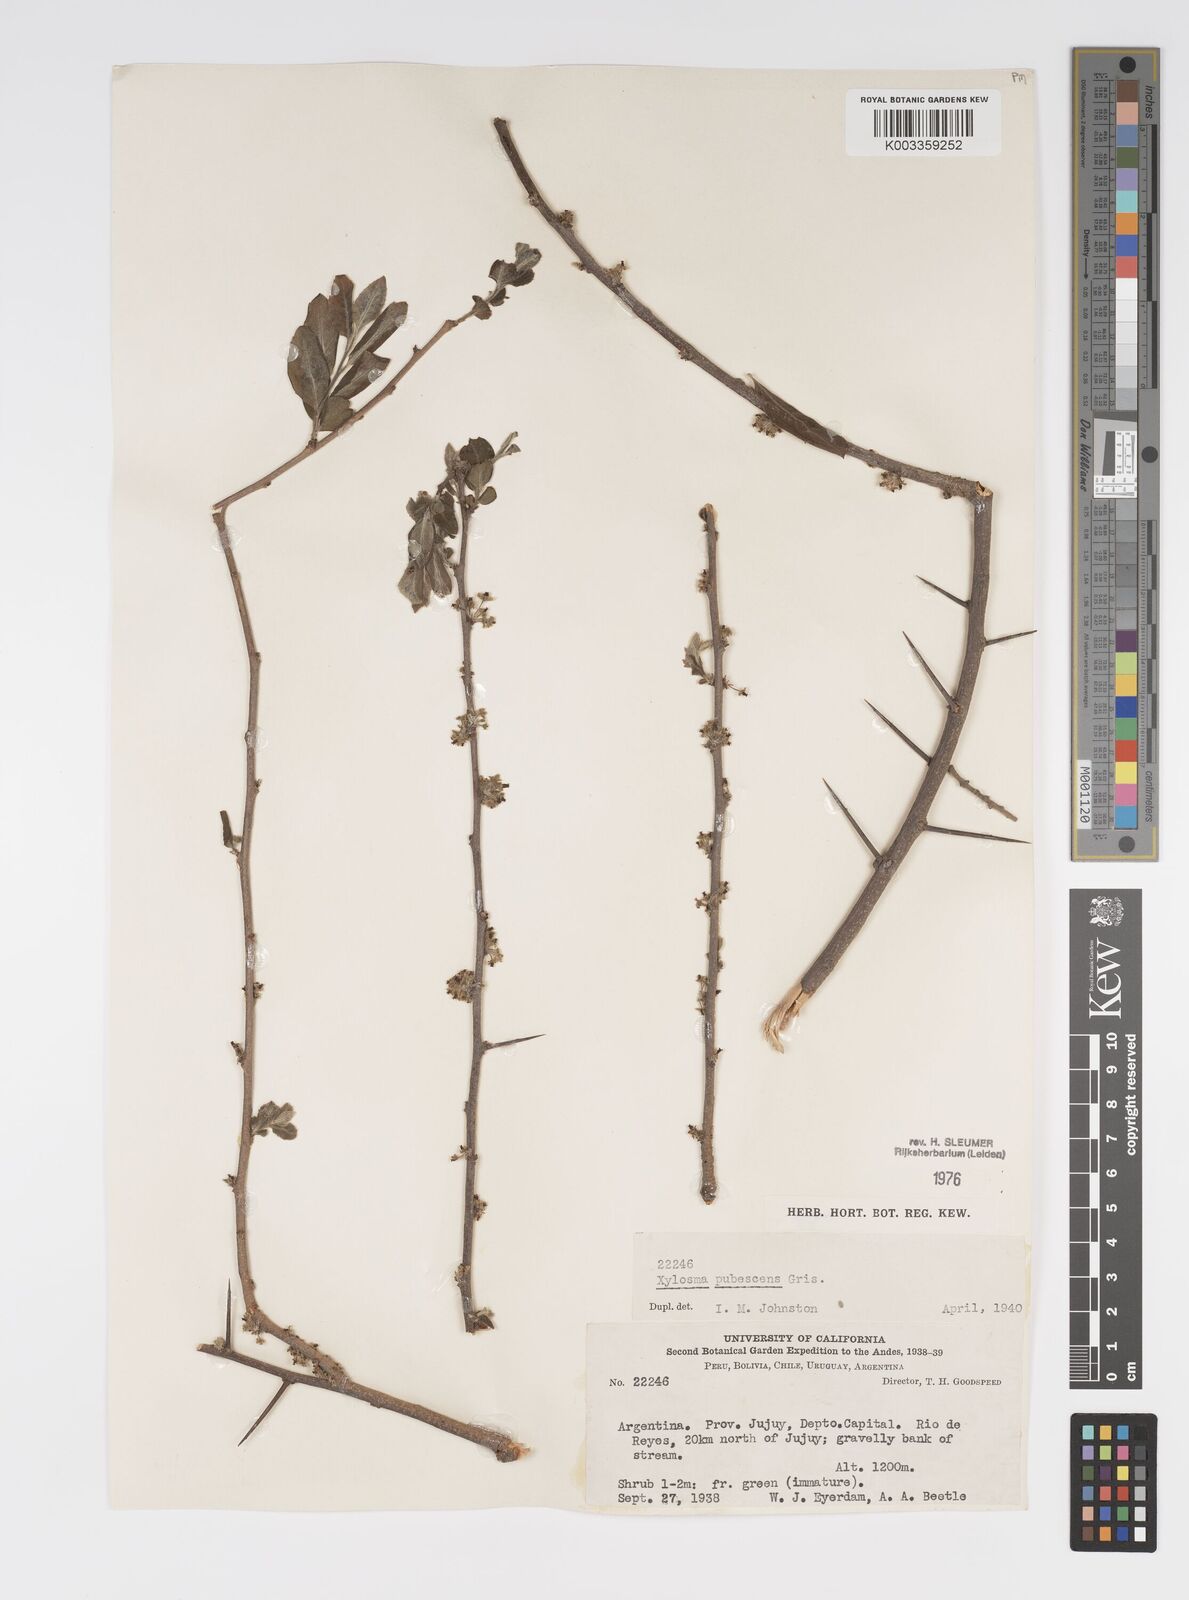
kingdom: Plantae
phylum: Tracheophyta
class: Magnoliopsida
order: Malpighiales
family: Salicaceae
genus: Xylosma
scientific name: Xylosma pubescens
